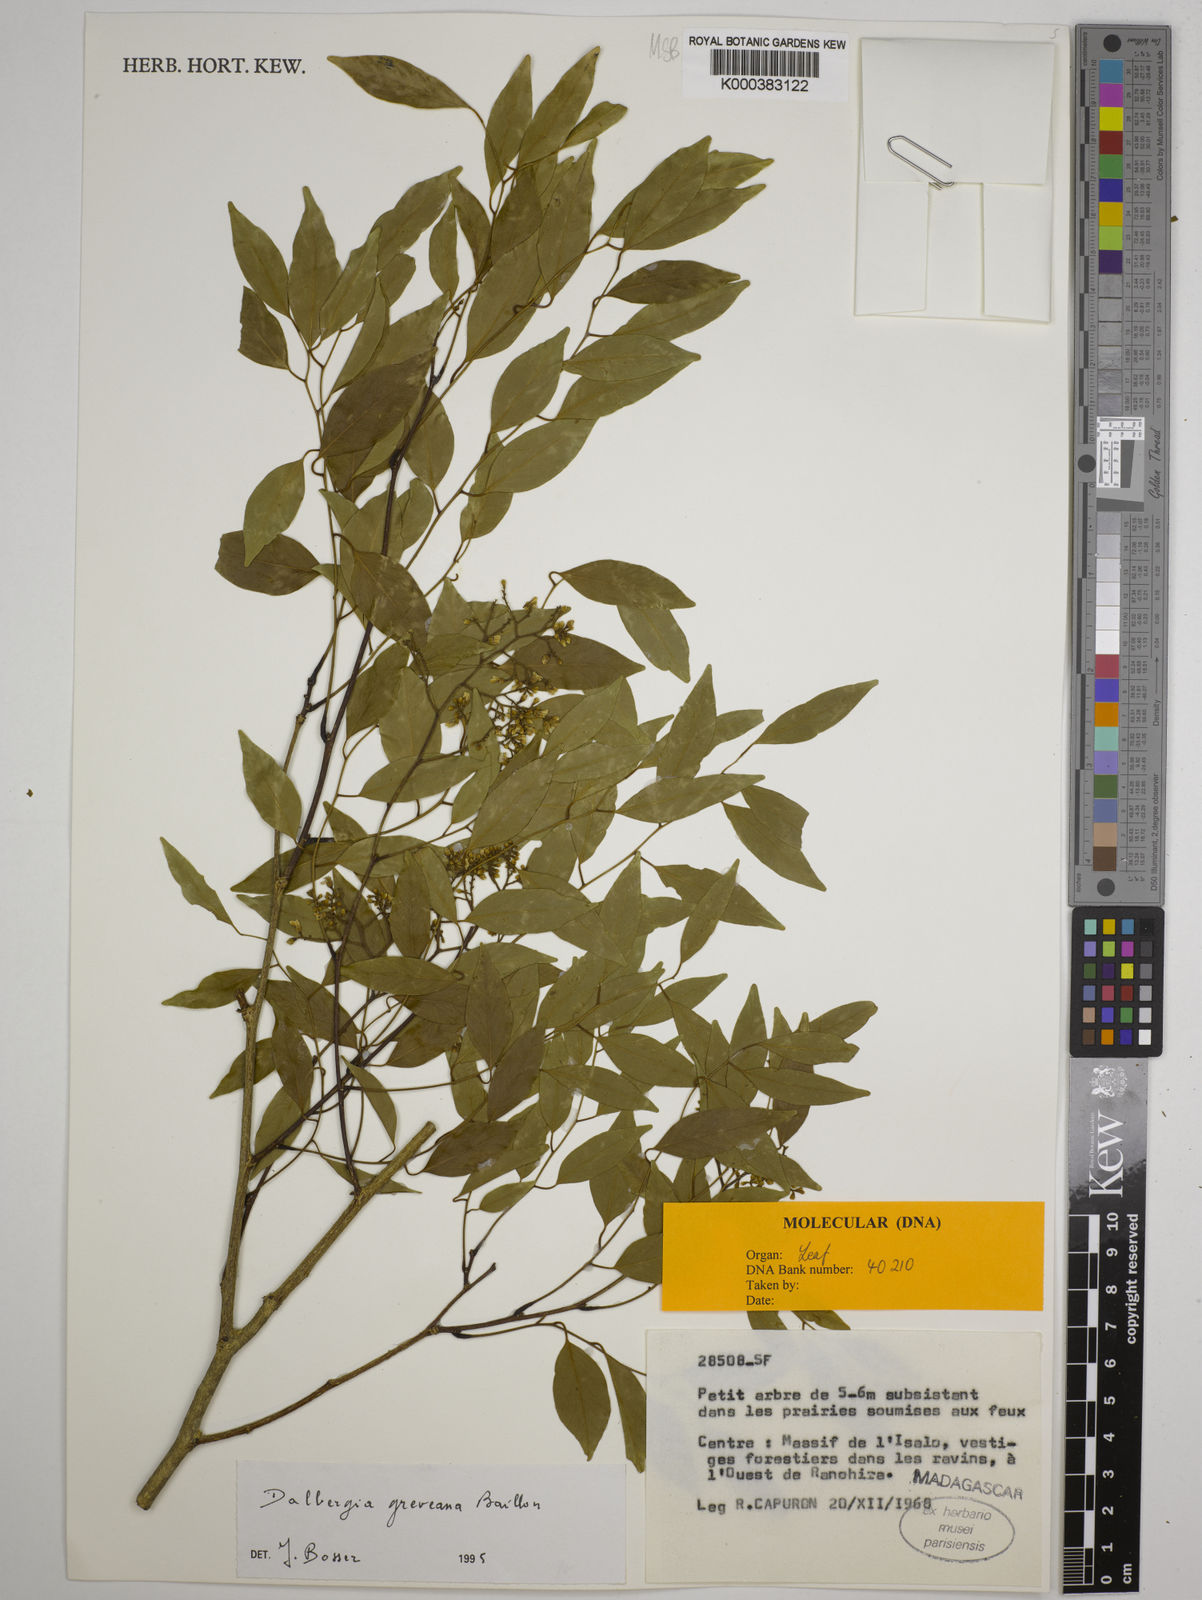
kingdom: Plantae
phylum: Tracheophyta
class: Magnoliopsida
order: Fabales
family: Fabaceae
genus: Dalbergia
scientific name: Dalbergia greveana
